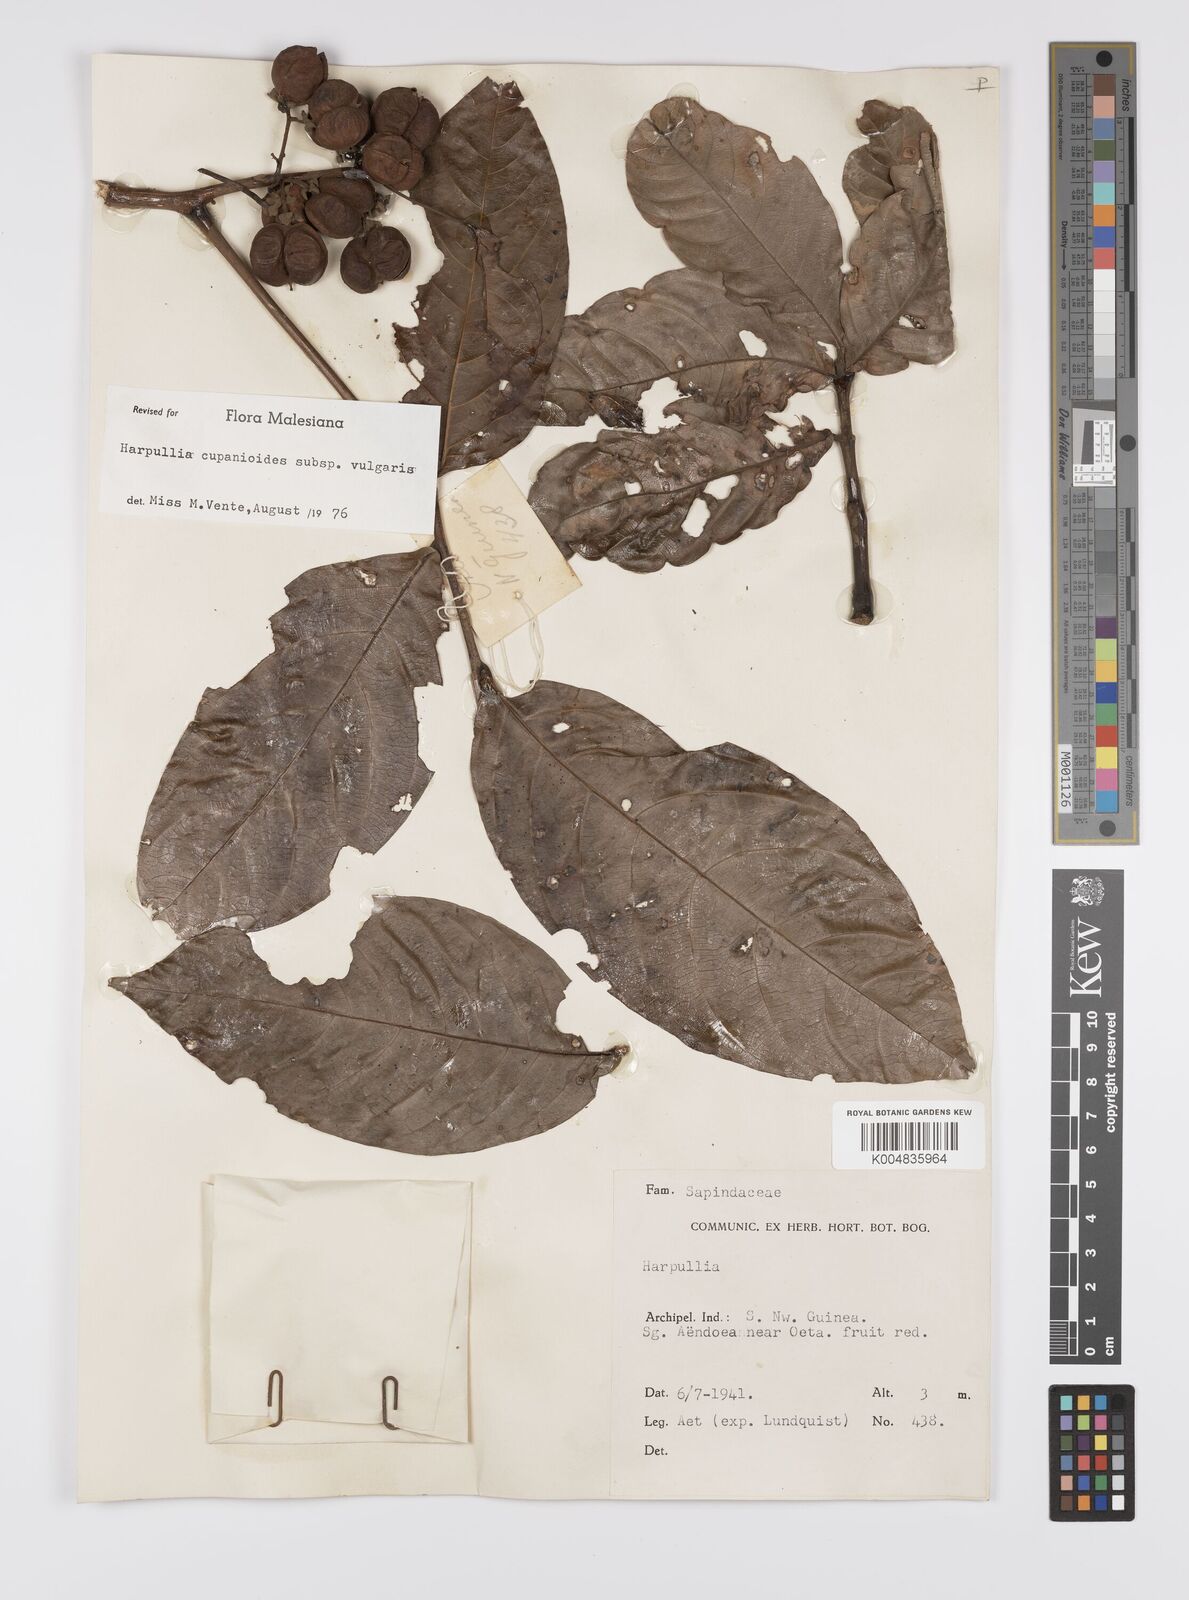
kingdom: Plantae
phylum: Tracheophyta
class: Magnoliopsida
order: Sapindales
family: Sapindaceae
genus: Harpullia
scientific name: Harpullia cupanioides
